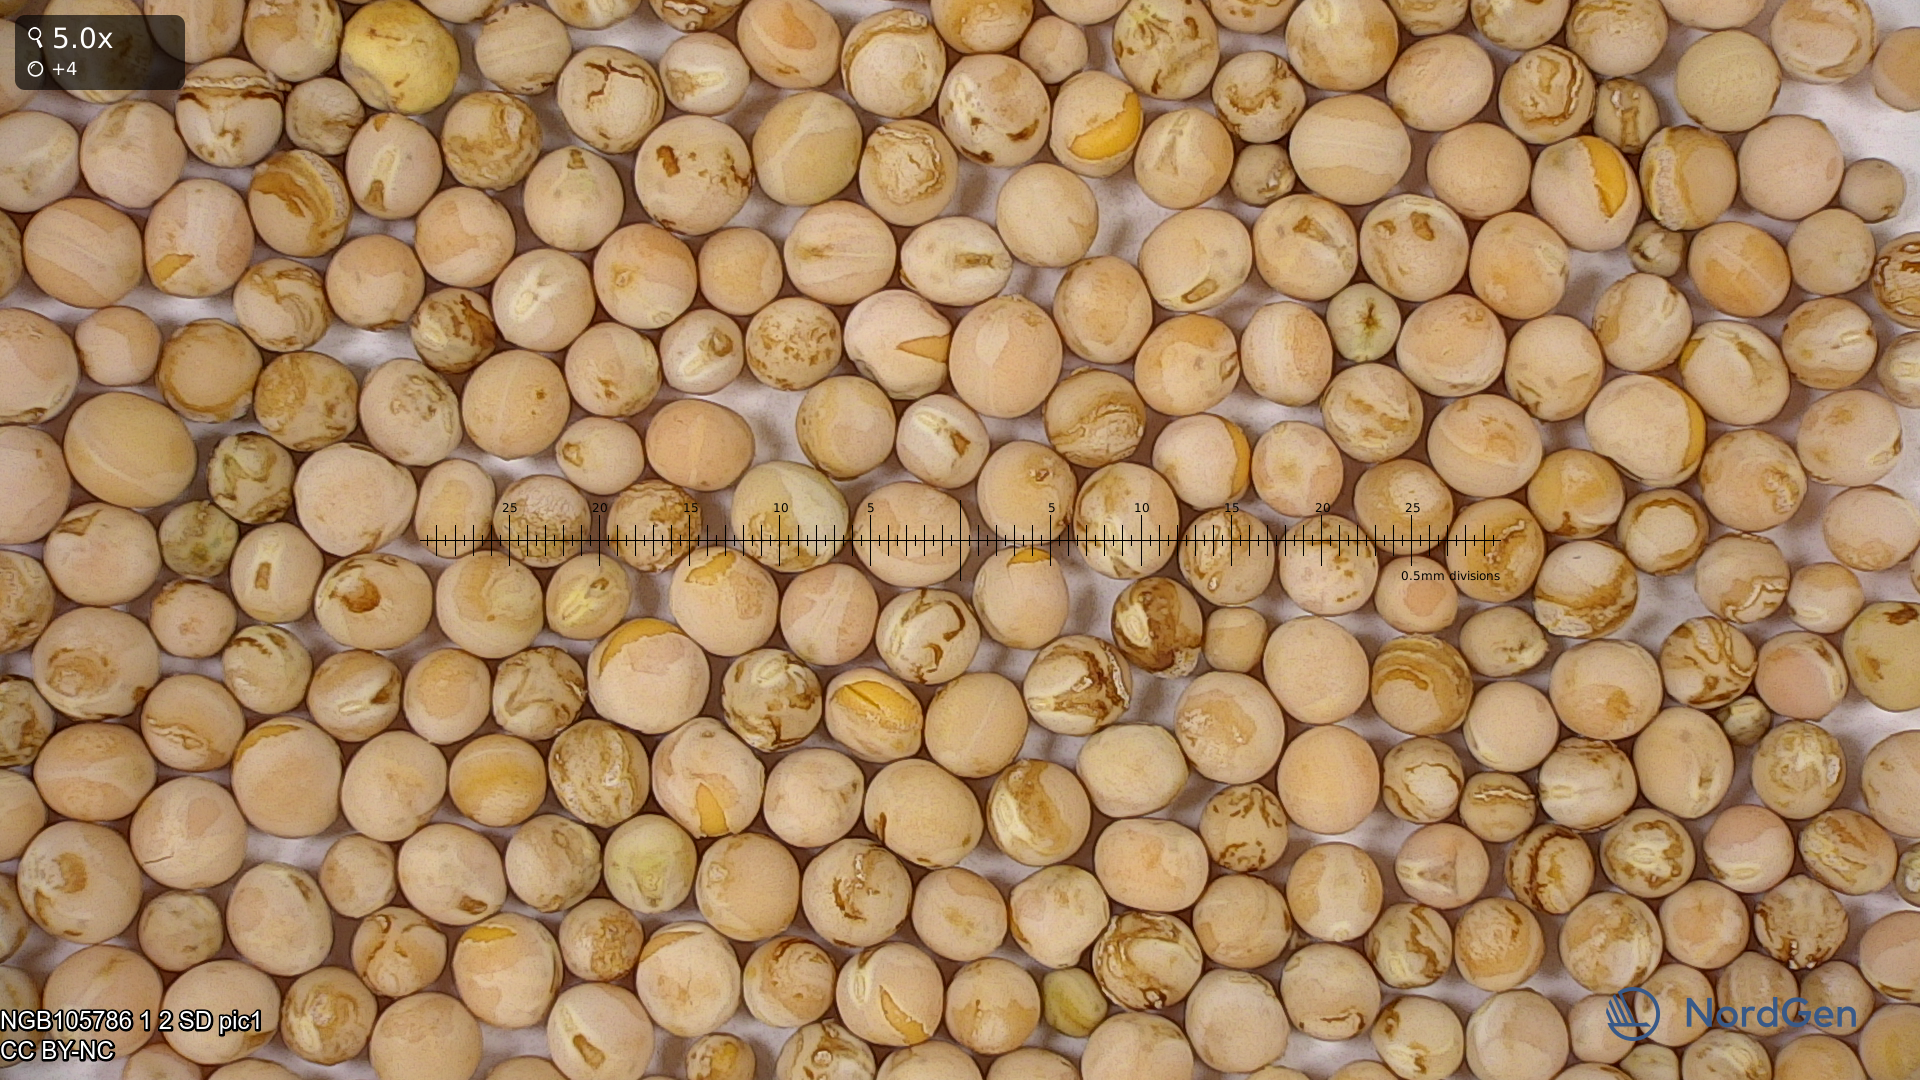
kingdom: Plantae
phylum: Tracheophyta
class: Magnoliopsida
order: Fabales
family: Fabaceae
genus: Lathyrus
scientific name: Lathyrus oleraceus
